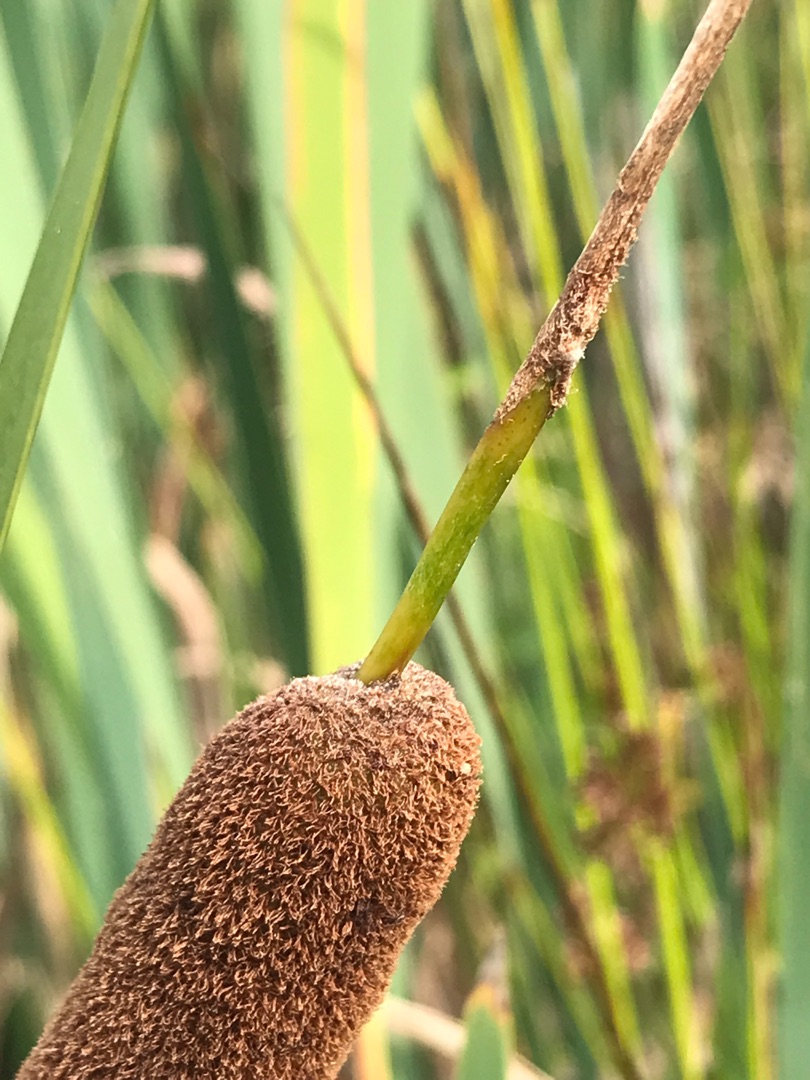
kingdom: Plantae
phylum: Tracheophyta
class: Liliopsida
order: Poales
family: Typhaceae
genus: Typha
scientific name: Typha angustifolia
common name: Smalbladet dunhammer
